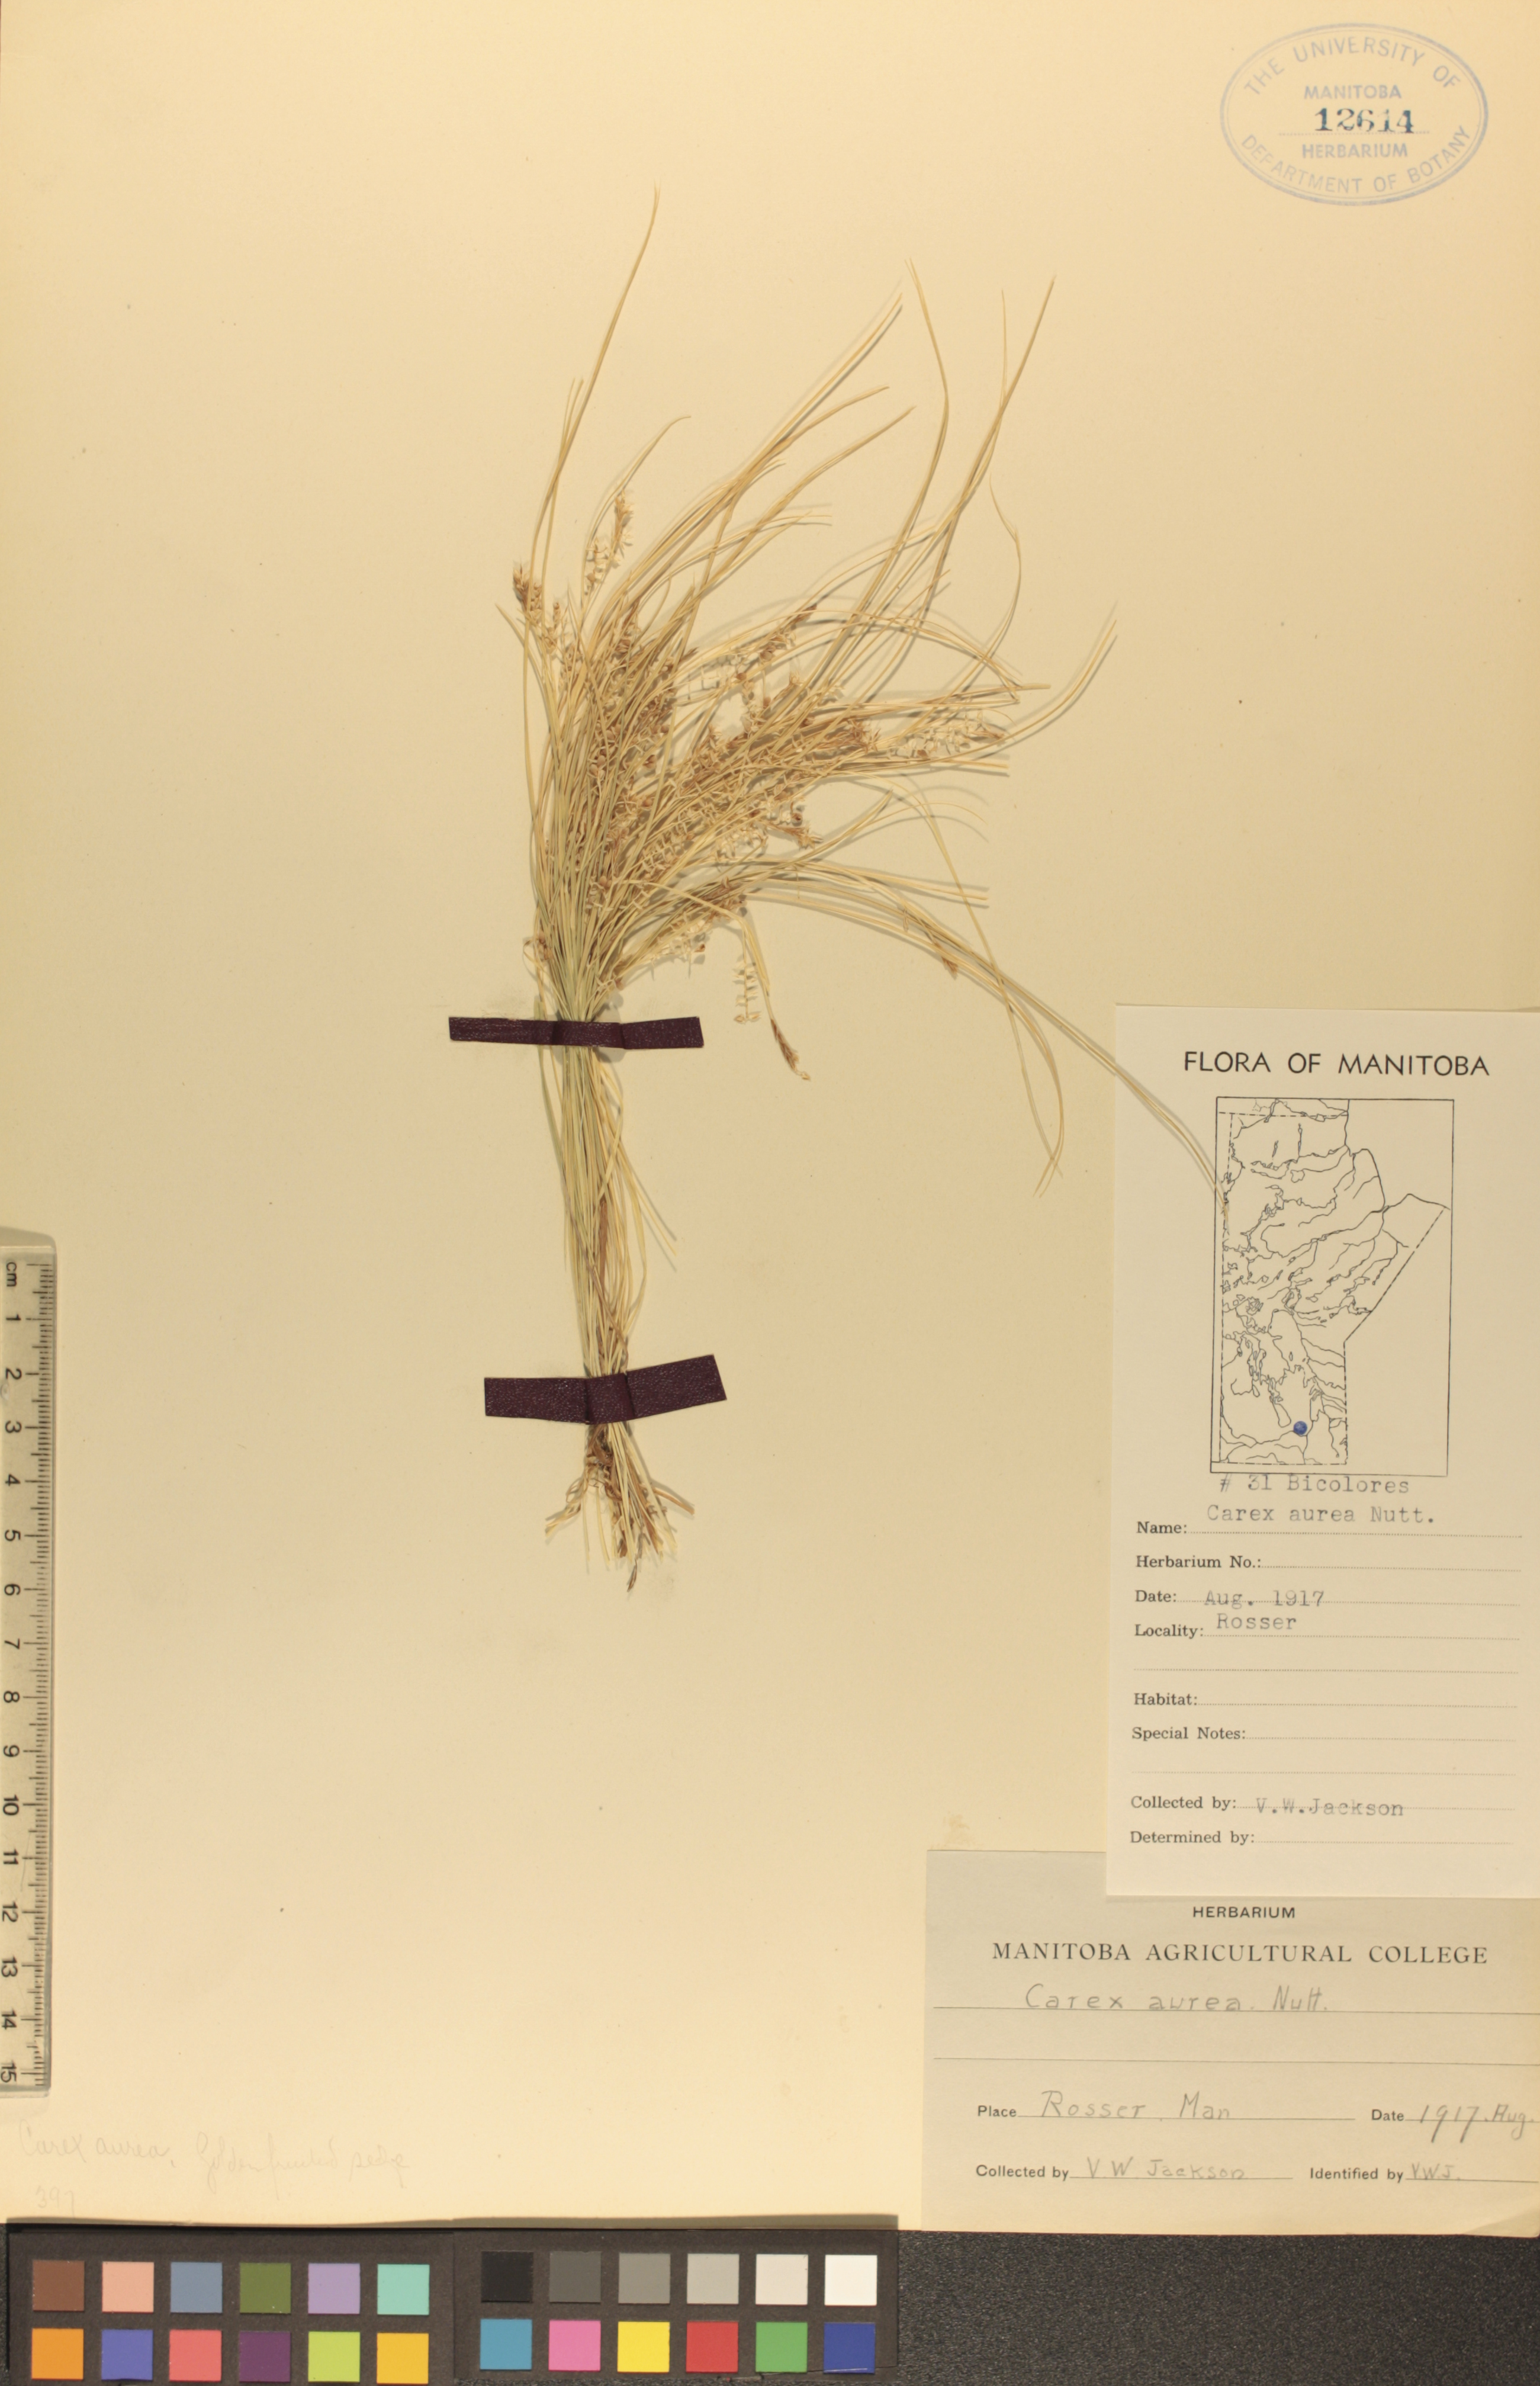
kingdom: Plantae
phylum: Tracheophyta
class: Liliopsida
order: Poales
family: Cyperaceae
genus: Carex
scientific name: Carex aurea
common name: Golden sedge
